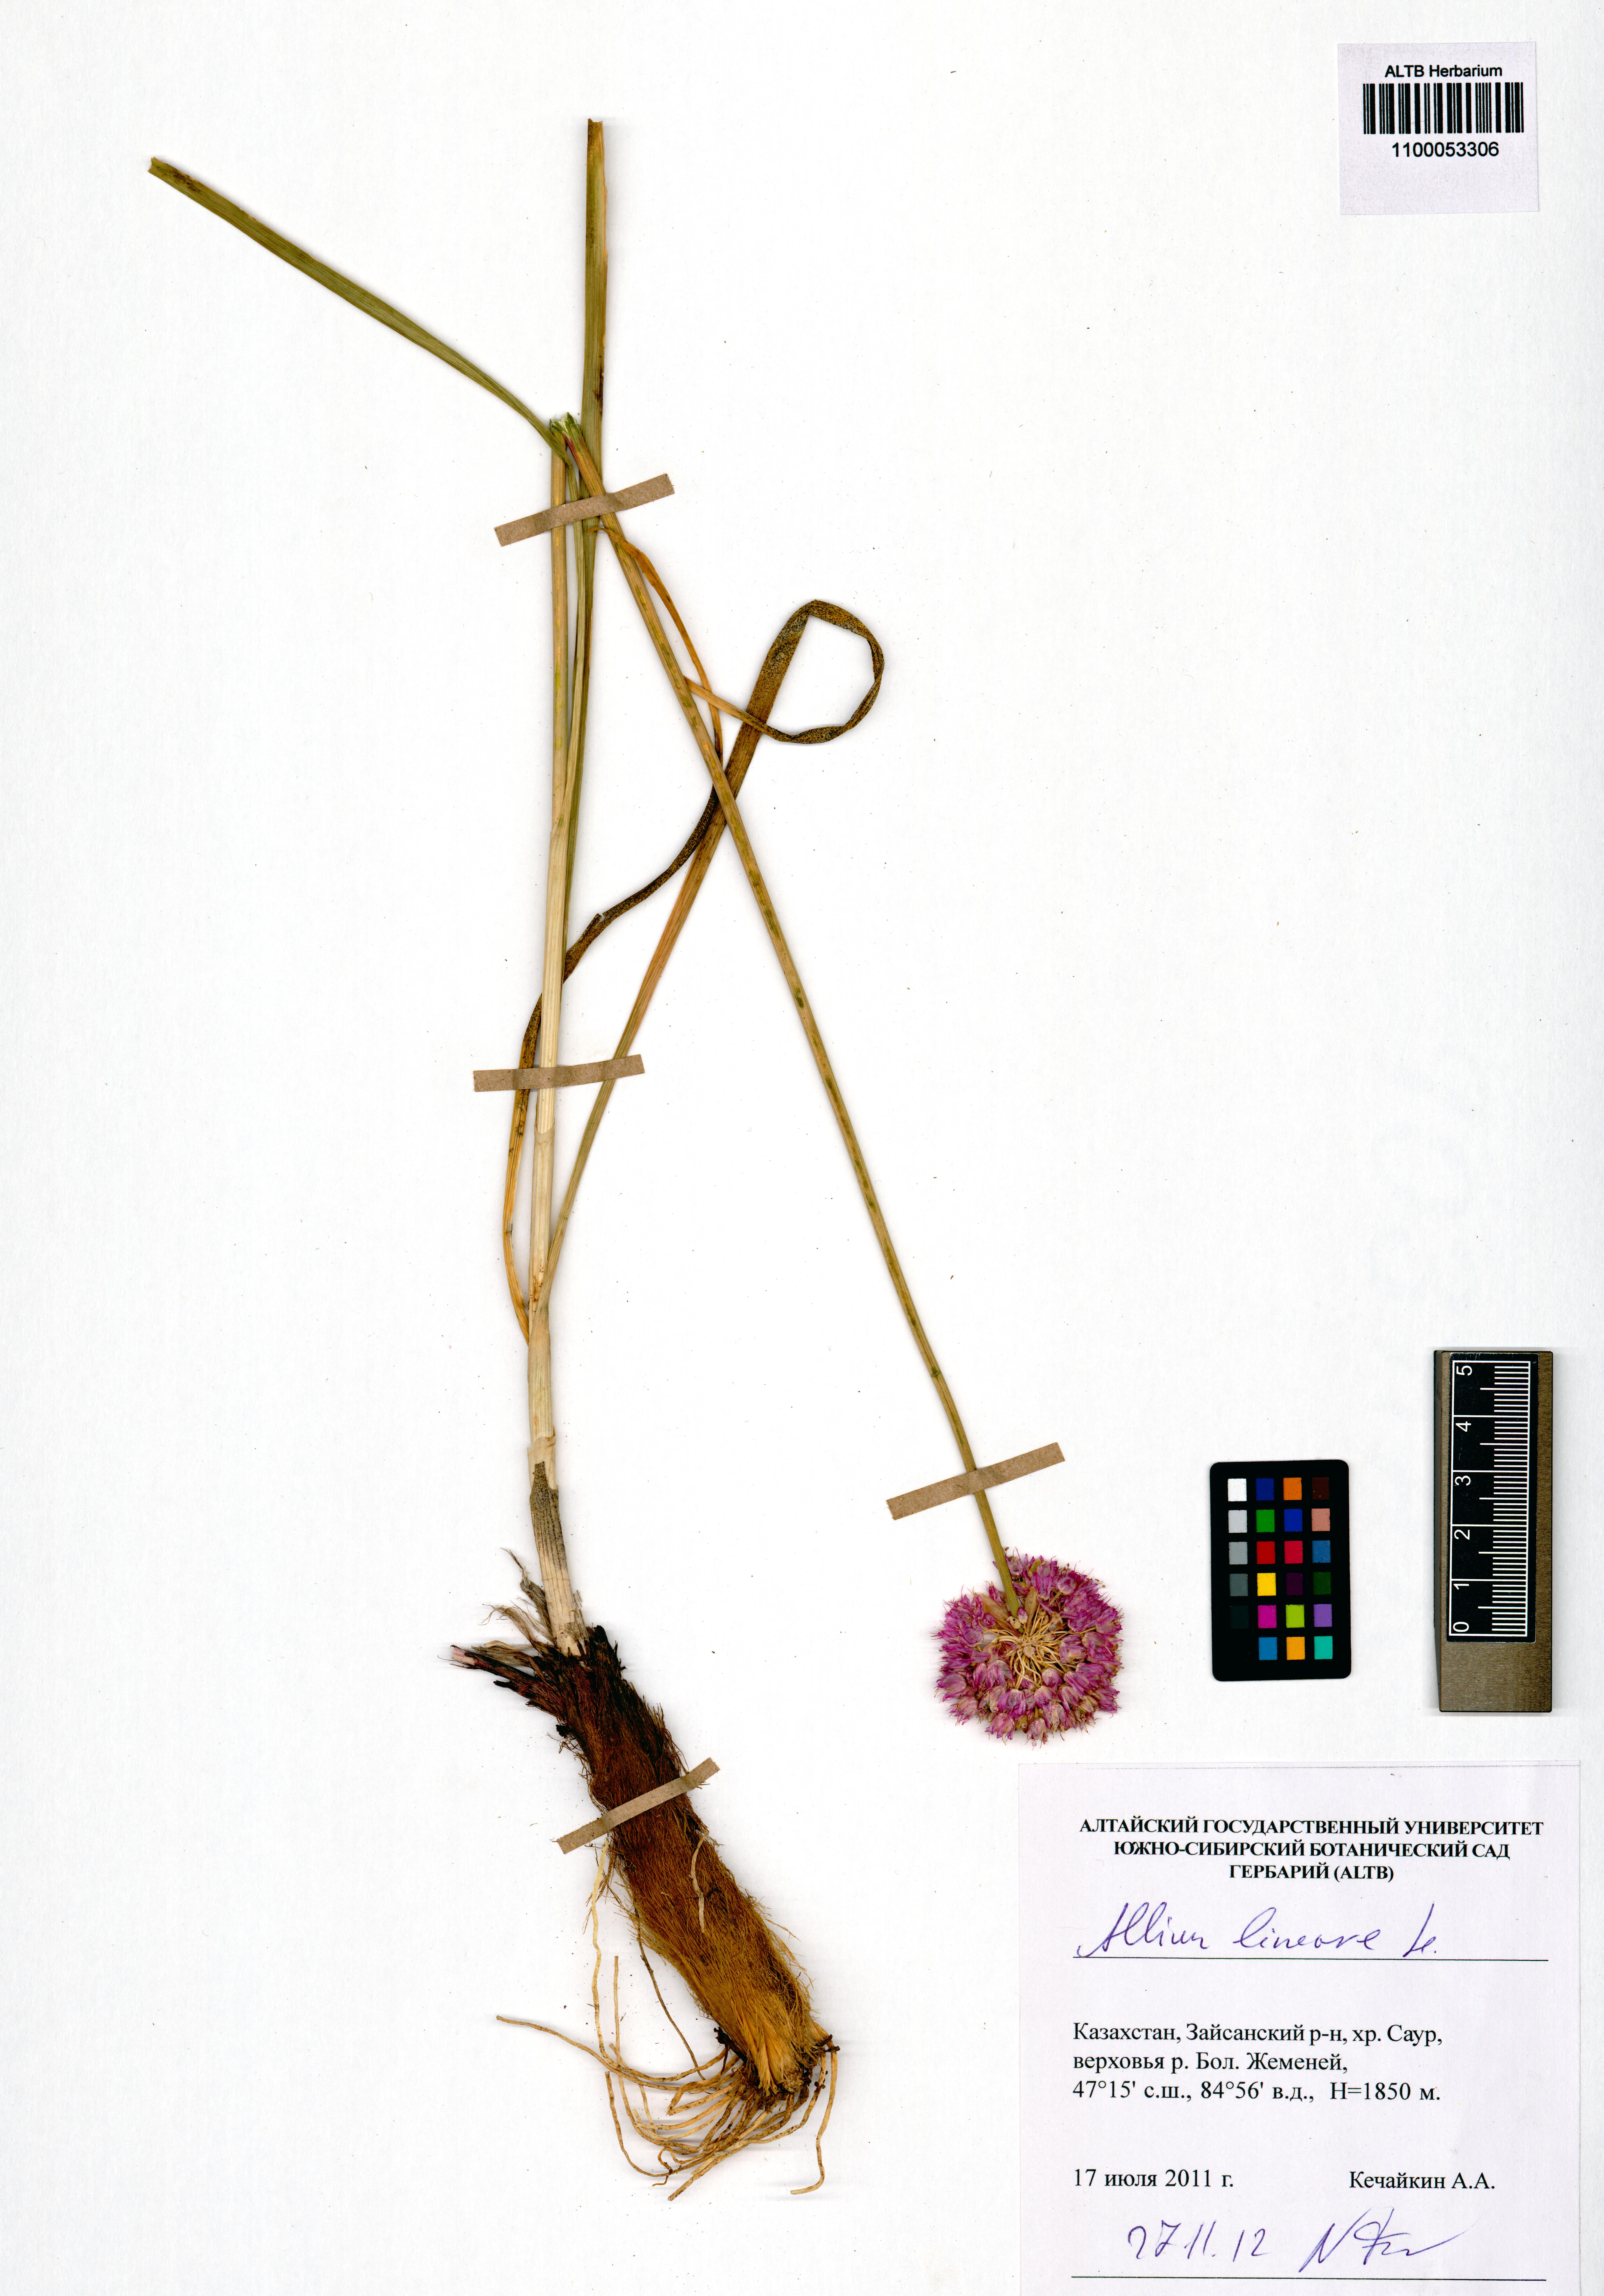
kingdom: Plantae
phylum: Tracheophyta
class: Liliopsida
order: Asparagales
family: Amaryllidaceae
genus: Allium
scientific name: Allium lineare
